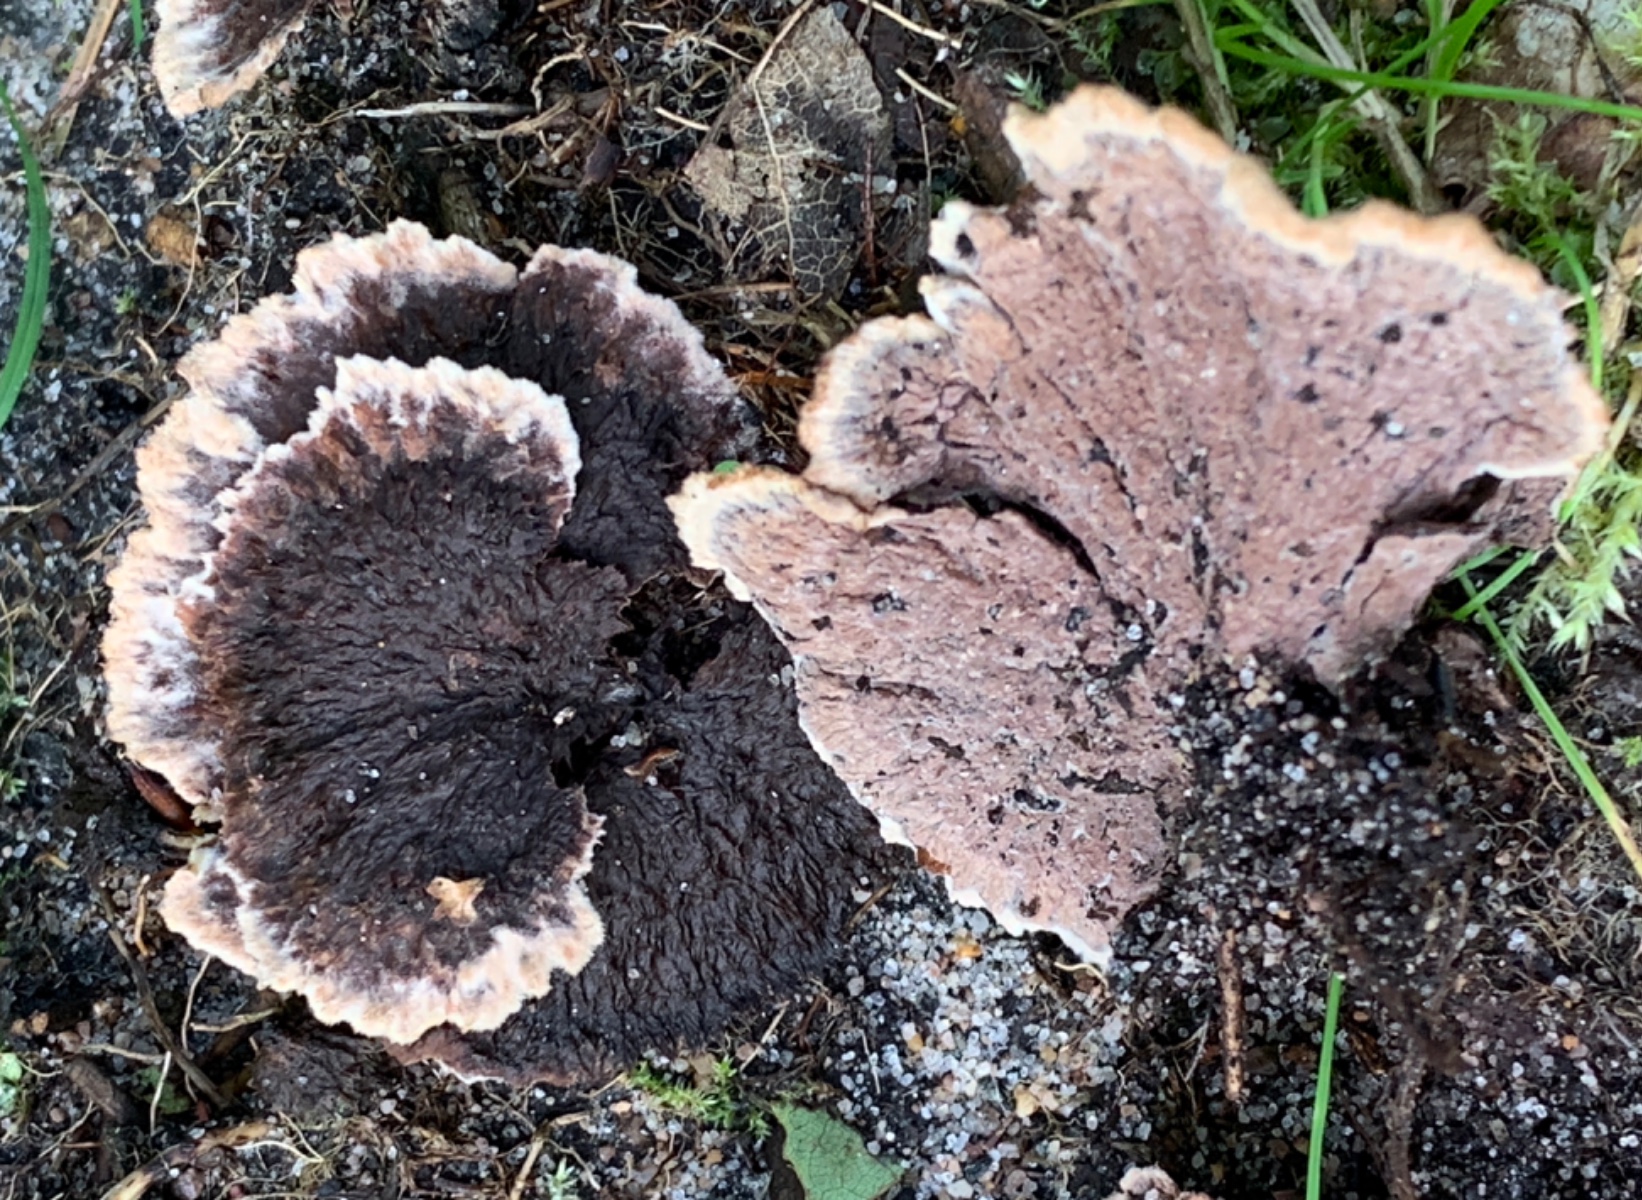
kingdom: Fungi
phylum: Basidiomycota
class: Agaricomycetes
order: Thelephorales
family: Thelephoraceae
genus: Thelephora
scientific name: Thelephora terrestris
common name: fliget frynsesvamp
